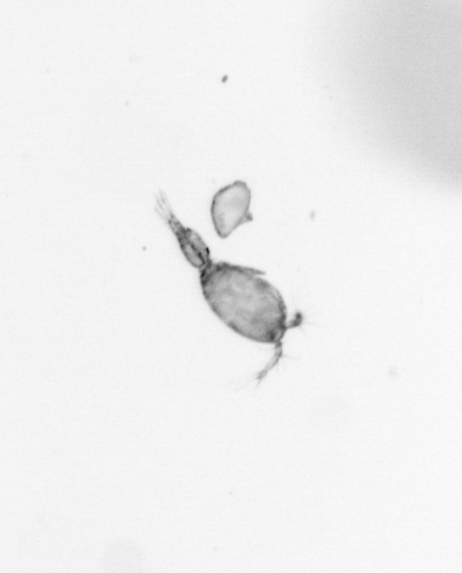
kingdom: Animalia
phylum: Arthropoda
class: Copepoda
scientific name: Copepoda
